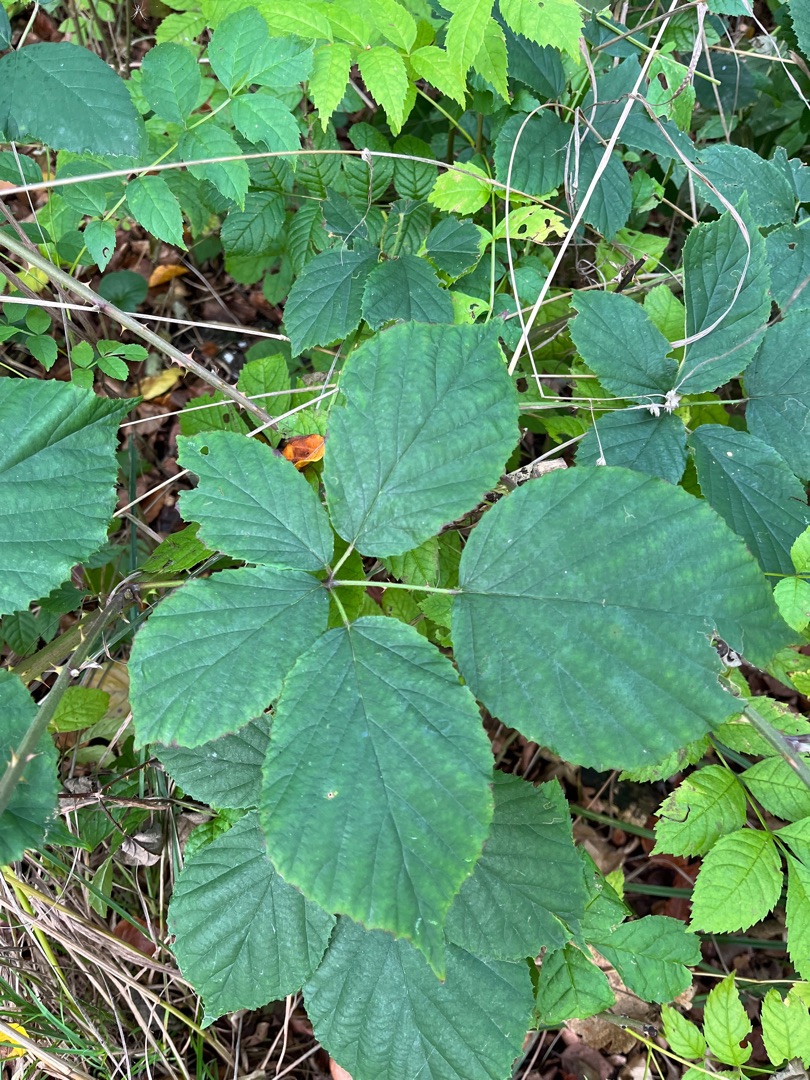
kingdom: Plantae
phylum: Tracheophyta
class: Magnoliopsida
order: Rosales
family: Rosaceae
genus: Rubus
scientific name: Rubus radula
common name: Rasperu brombær
